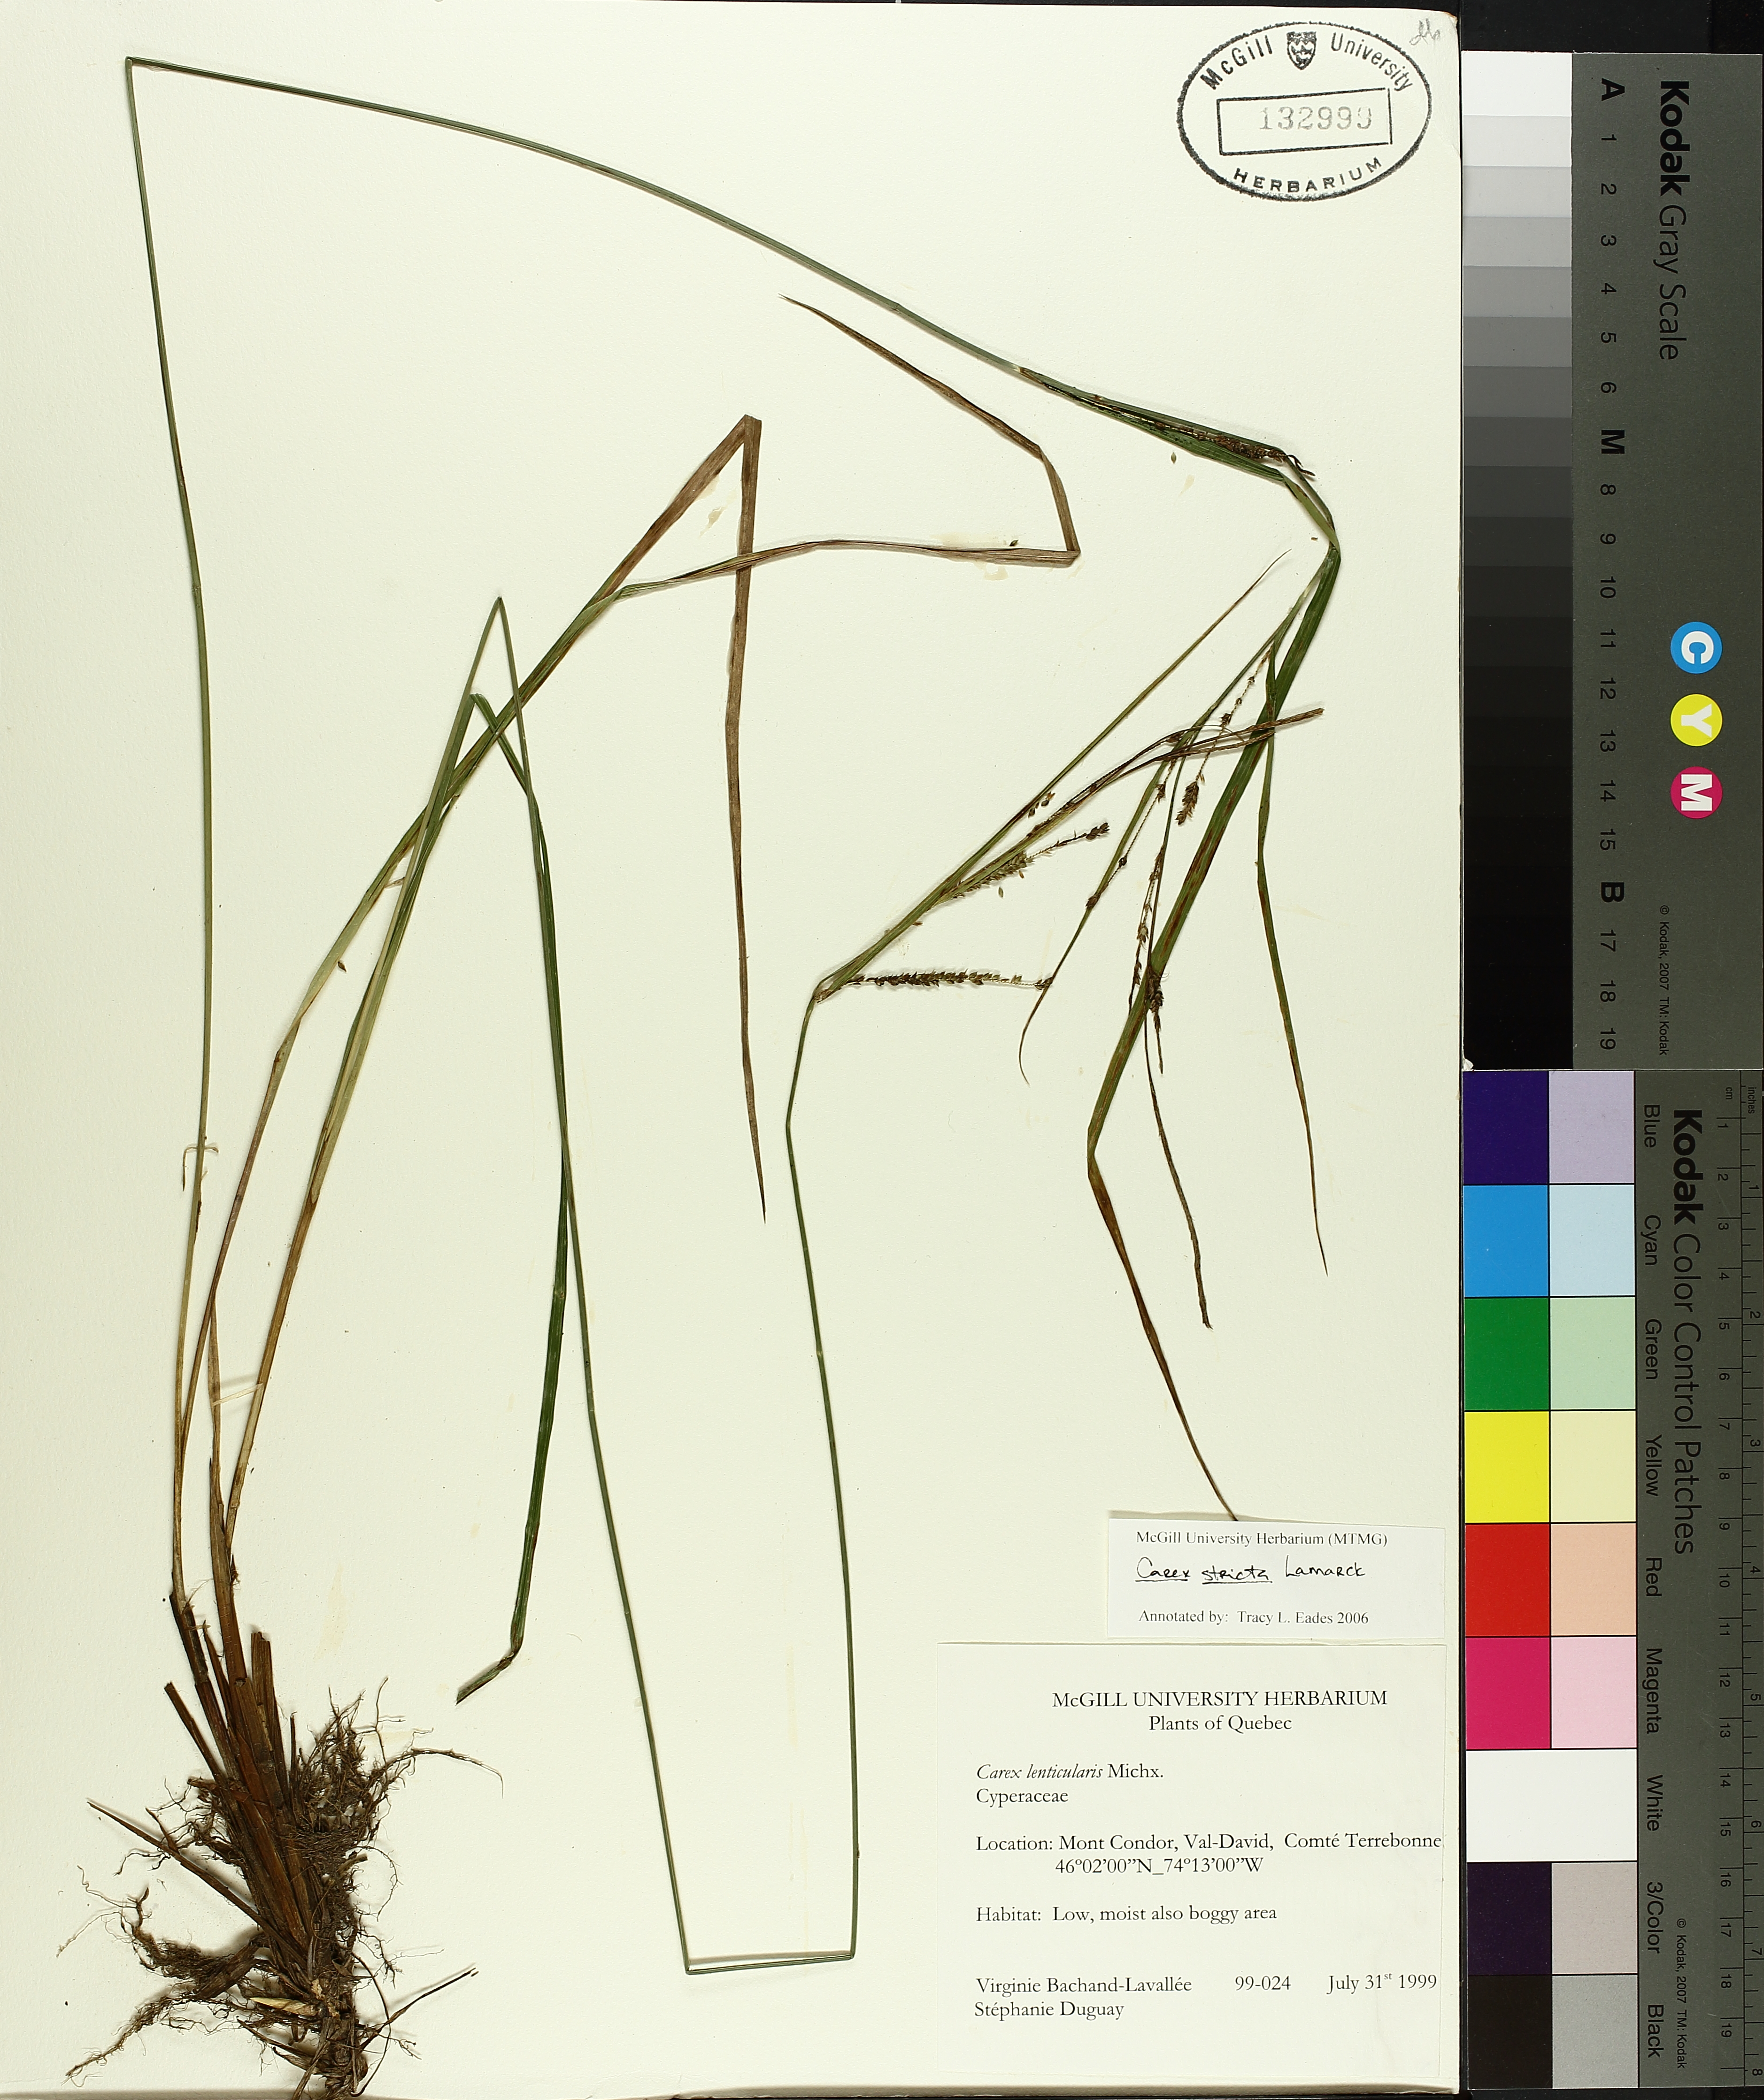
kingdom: Plantae
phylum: Tracheophyta
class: Liliopsida
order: Poales
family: Cyperaceae
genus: Carex
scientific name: Carex stricta
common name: Hummock sedge
